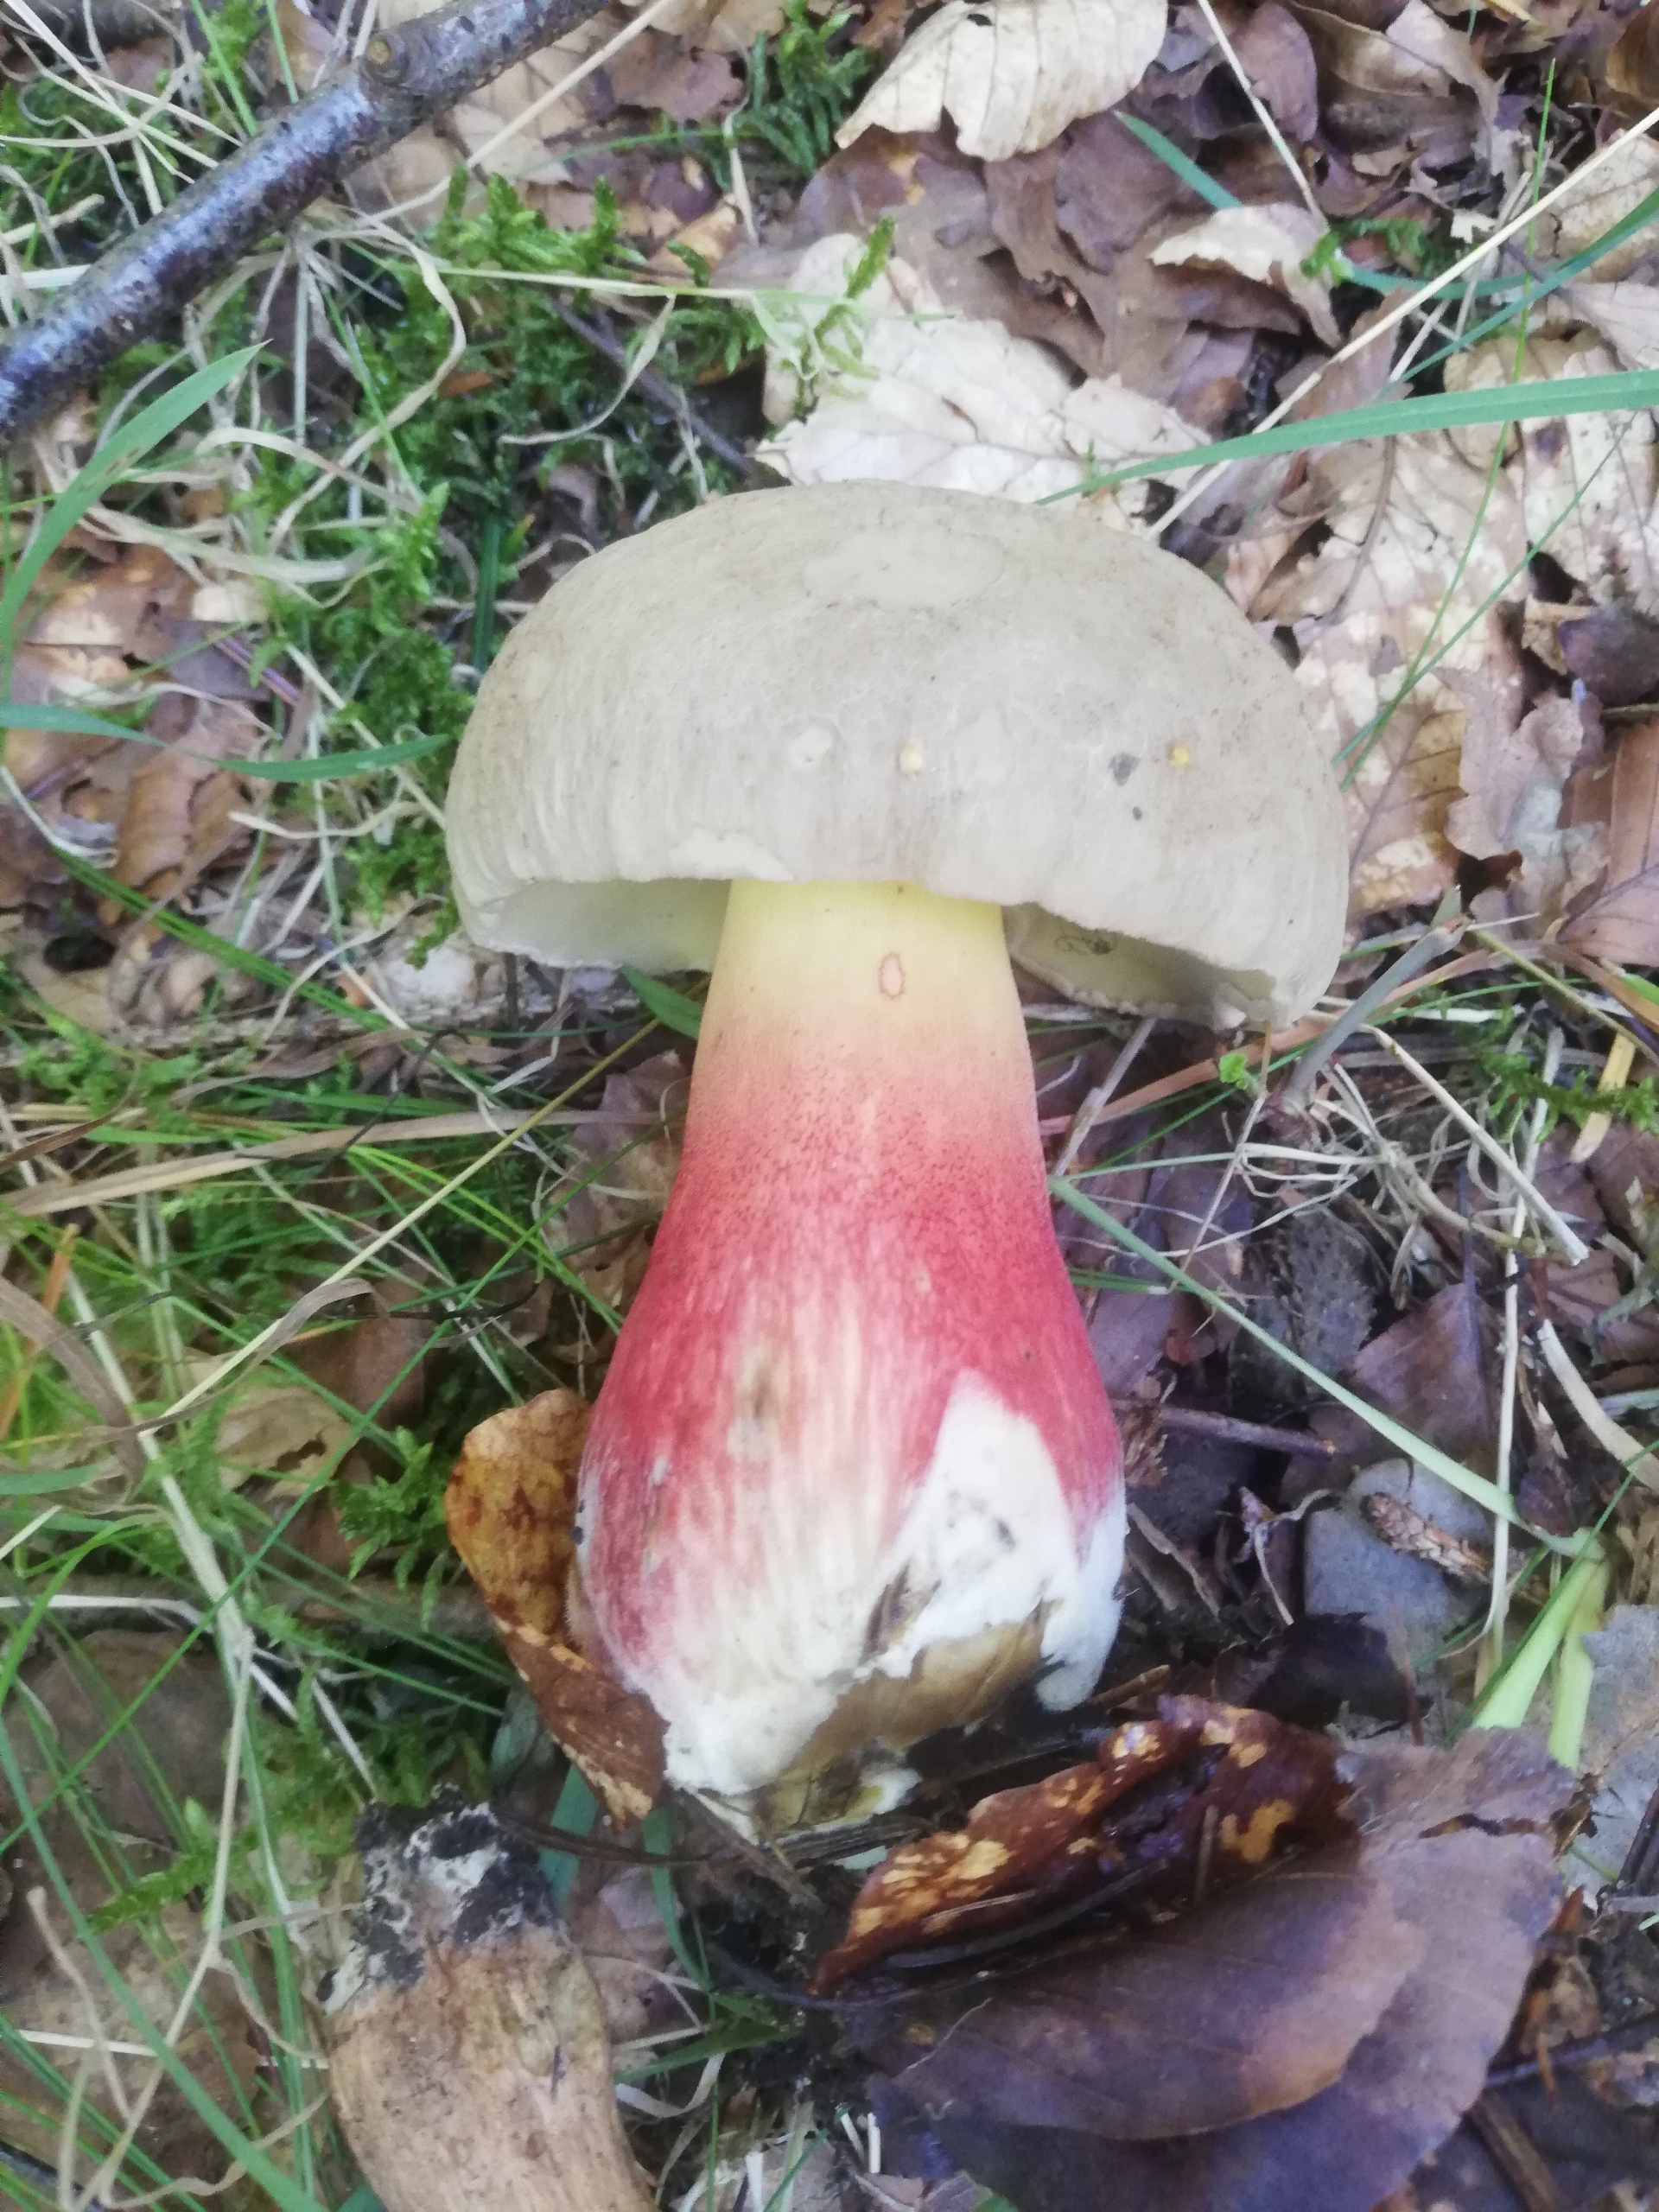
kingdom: Fungi
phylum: Basidiomycota
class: Agaricomycetes
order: Boletales
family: Boletaceae
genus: Caloboletus
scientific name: Caloboletus calopus
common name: Skønfodet rørhat
